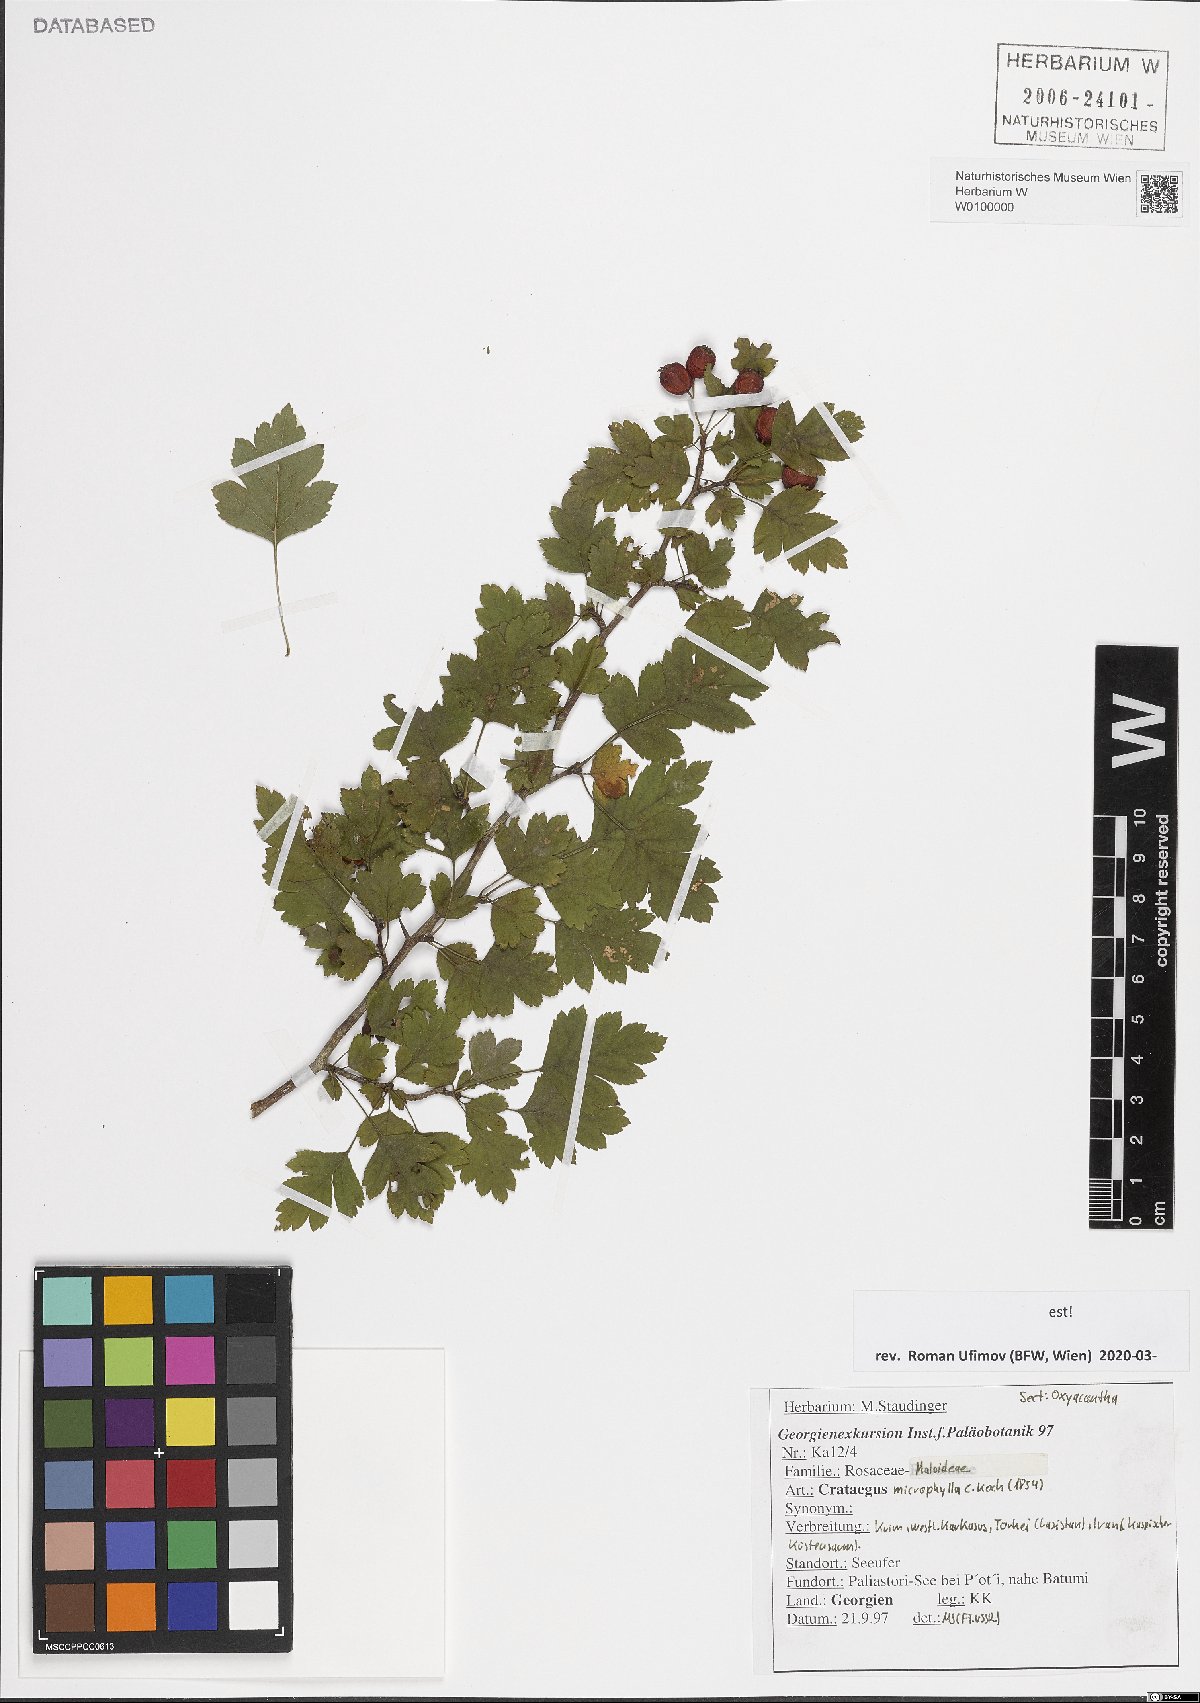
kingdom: Plantae
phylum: Tracheophyta
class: Magnoliopsida
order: Rosales
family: Rosaceae
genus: Crataegus
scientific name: Crataegus microphylla
